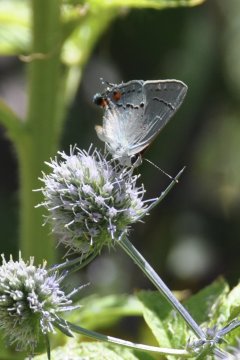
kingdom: Animalia
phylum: Arthropoda
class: Insecta
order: Lepidoptera
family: Lycaenidae
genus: Strymon
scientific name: Strymon melinus
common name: Gray Hairstreak
